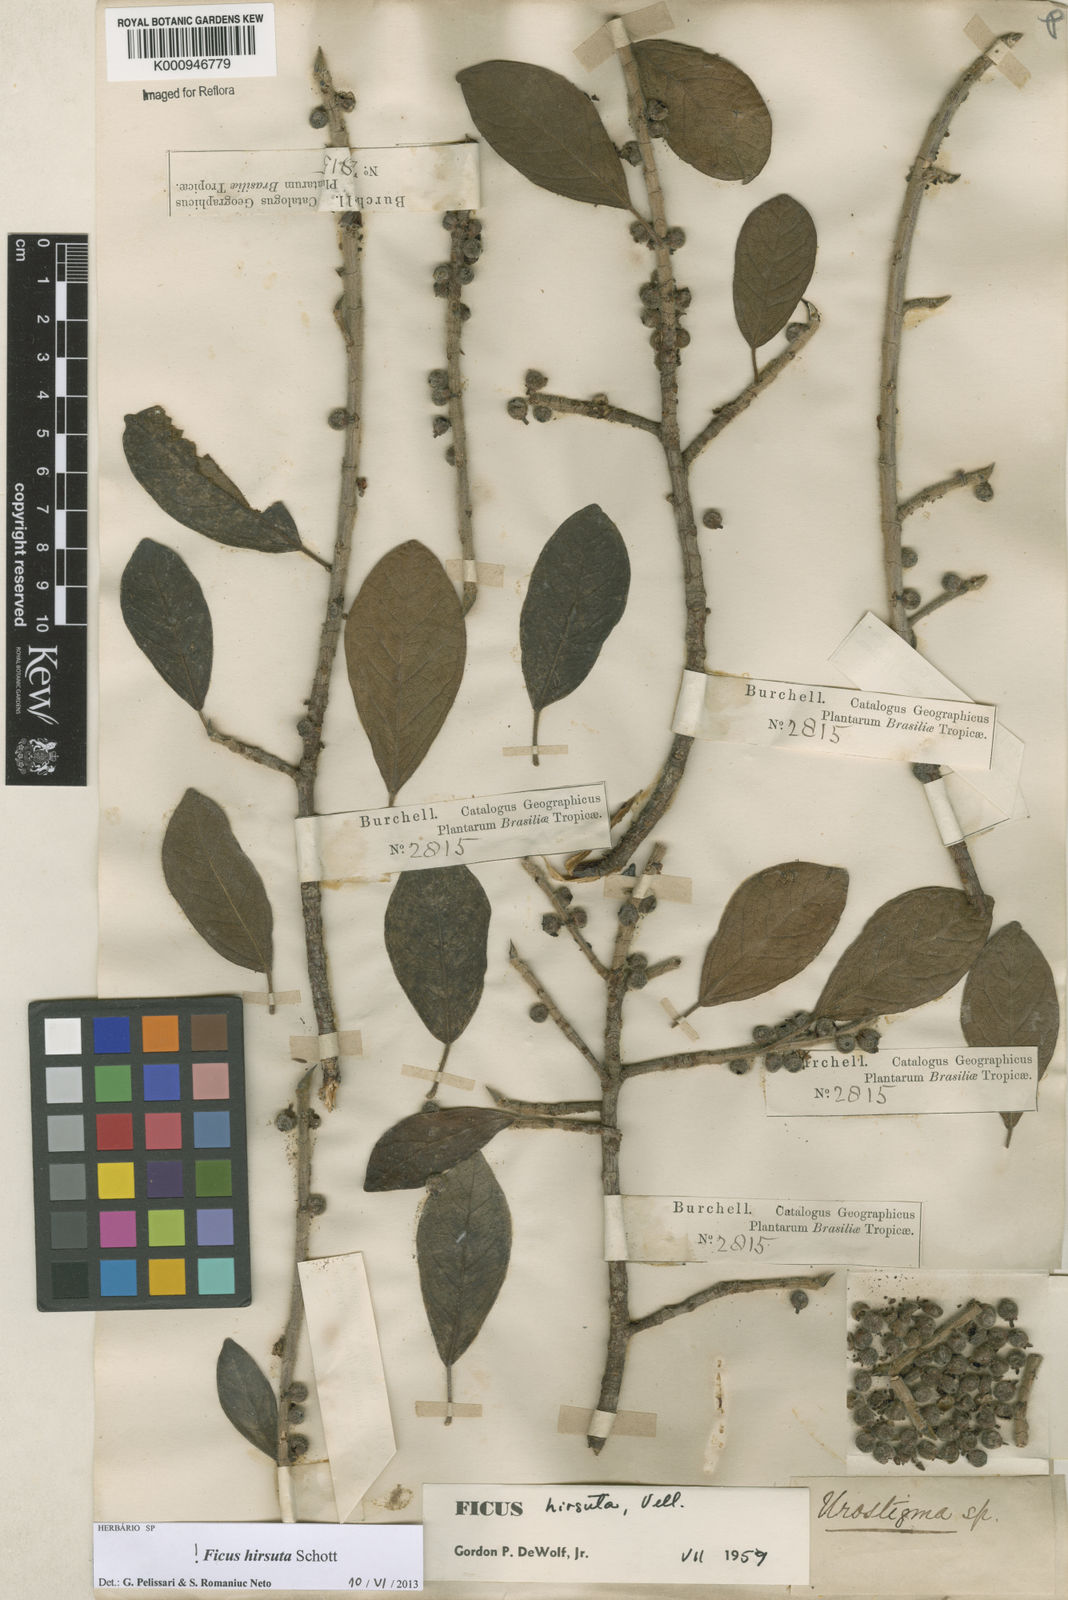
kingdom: Plantae
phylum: Tracheophyta
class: Magnoliopsida
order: Rosales
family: Moraceae
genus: Ficus
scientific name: Ficus hirsuta
